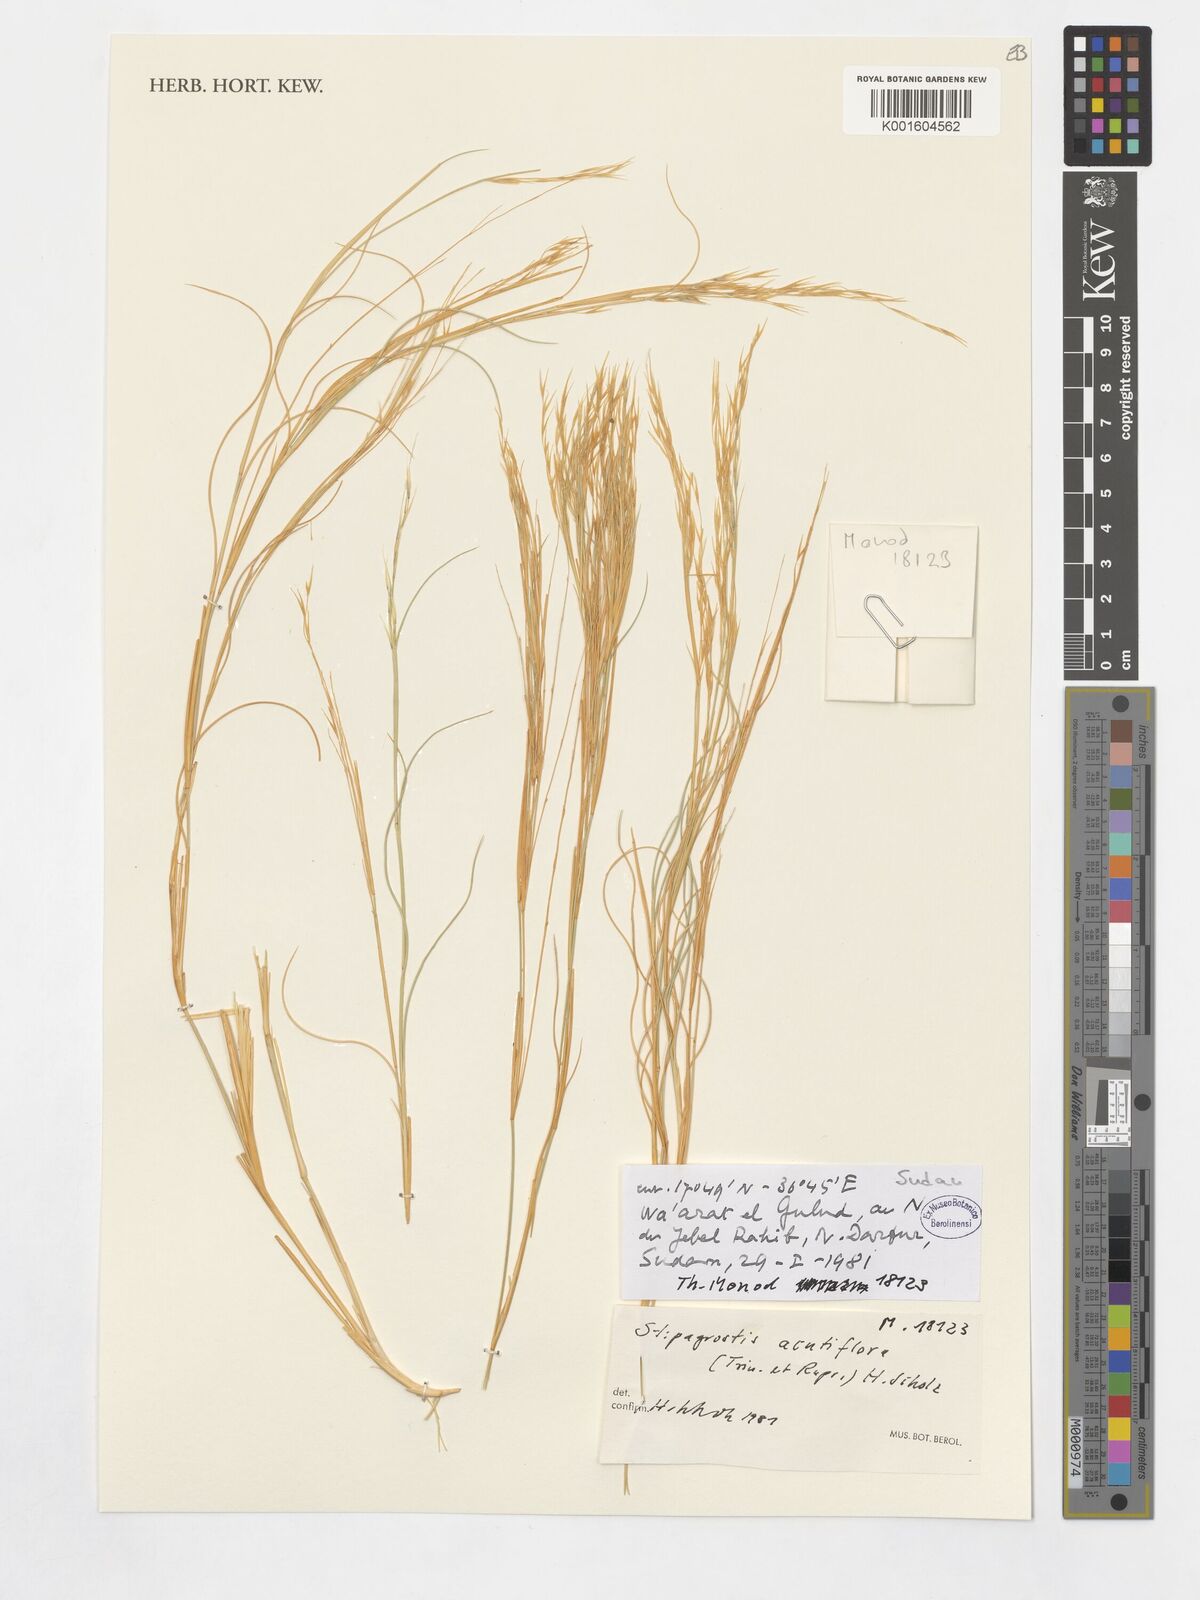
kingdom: Plantae
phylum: Tracheophyta
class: Liliopsida
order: Poales
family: Poaceae
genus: Stipagrostis
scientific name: Stipagrostis acutiflora
